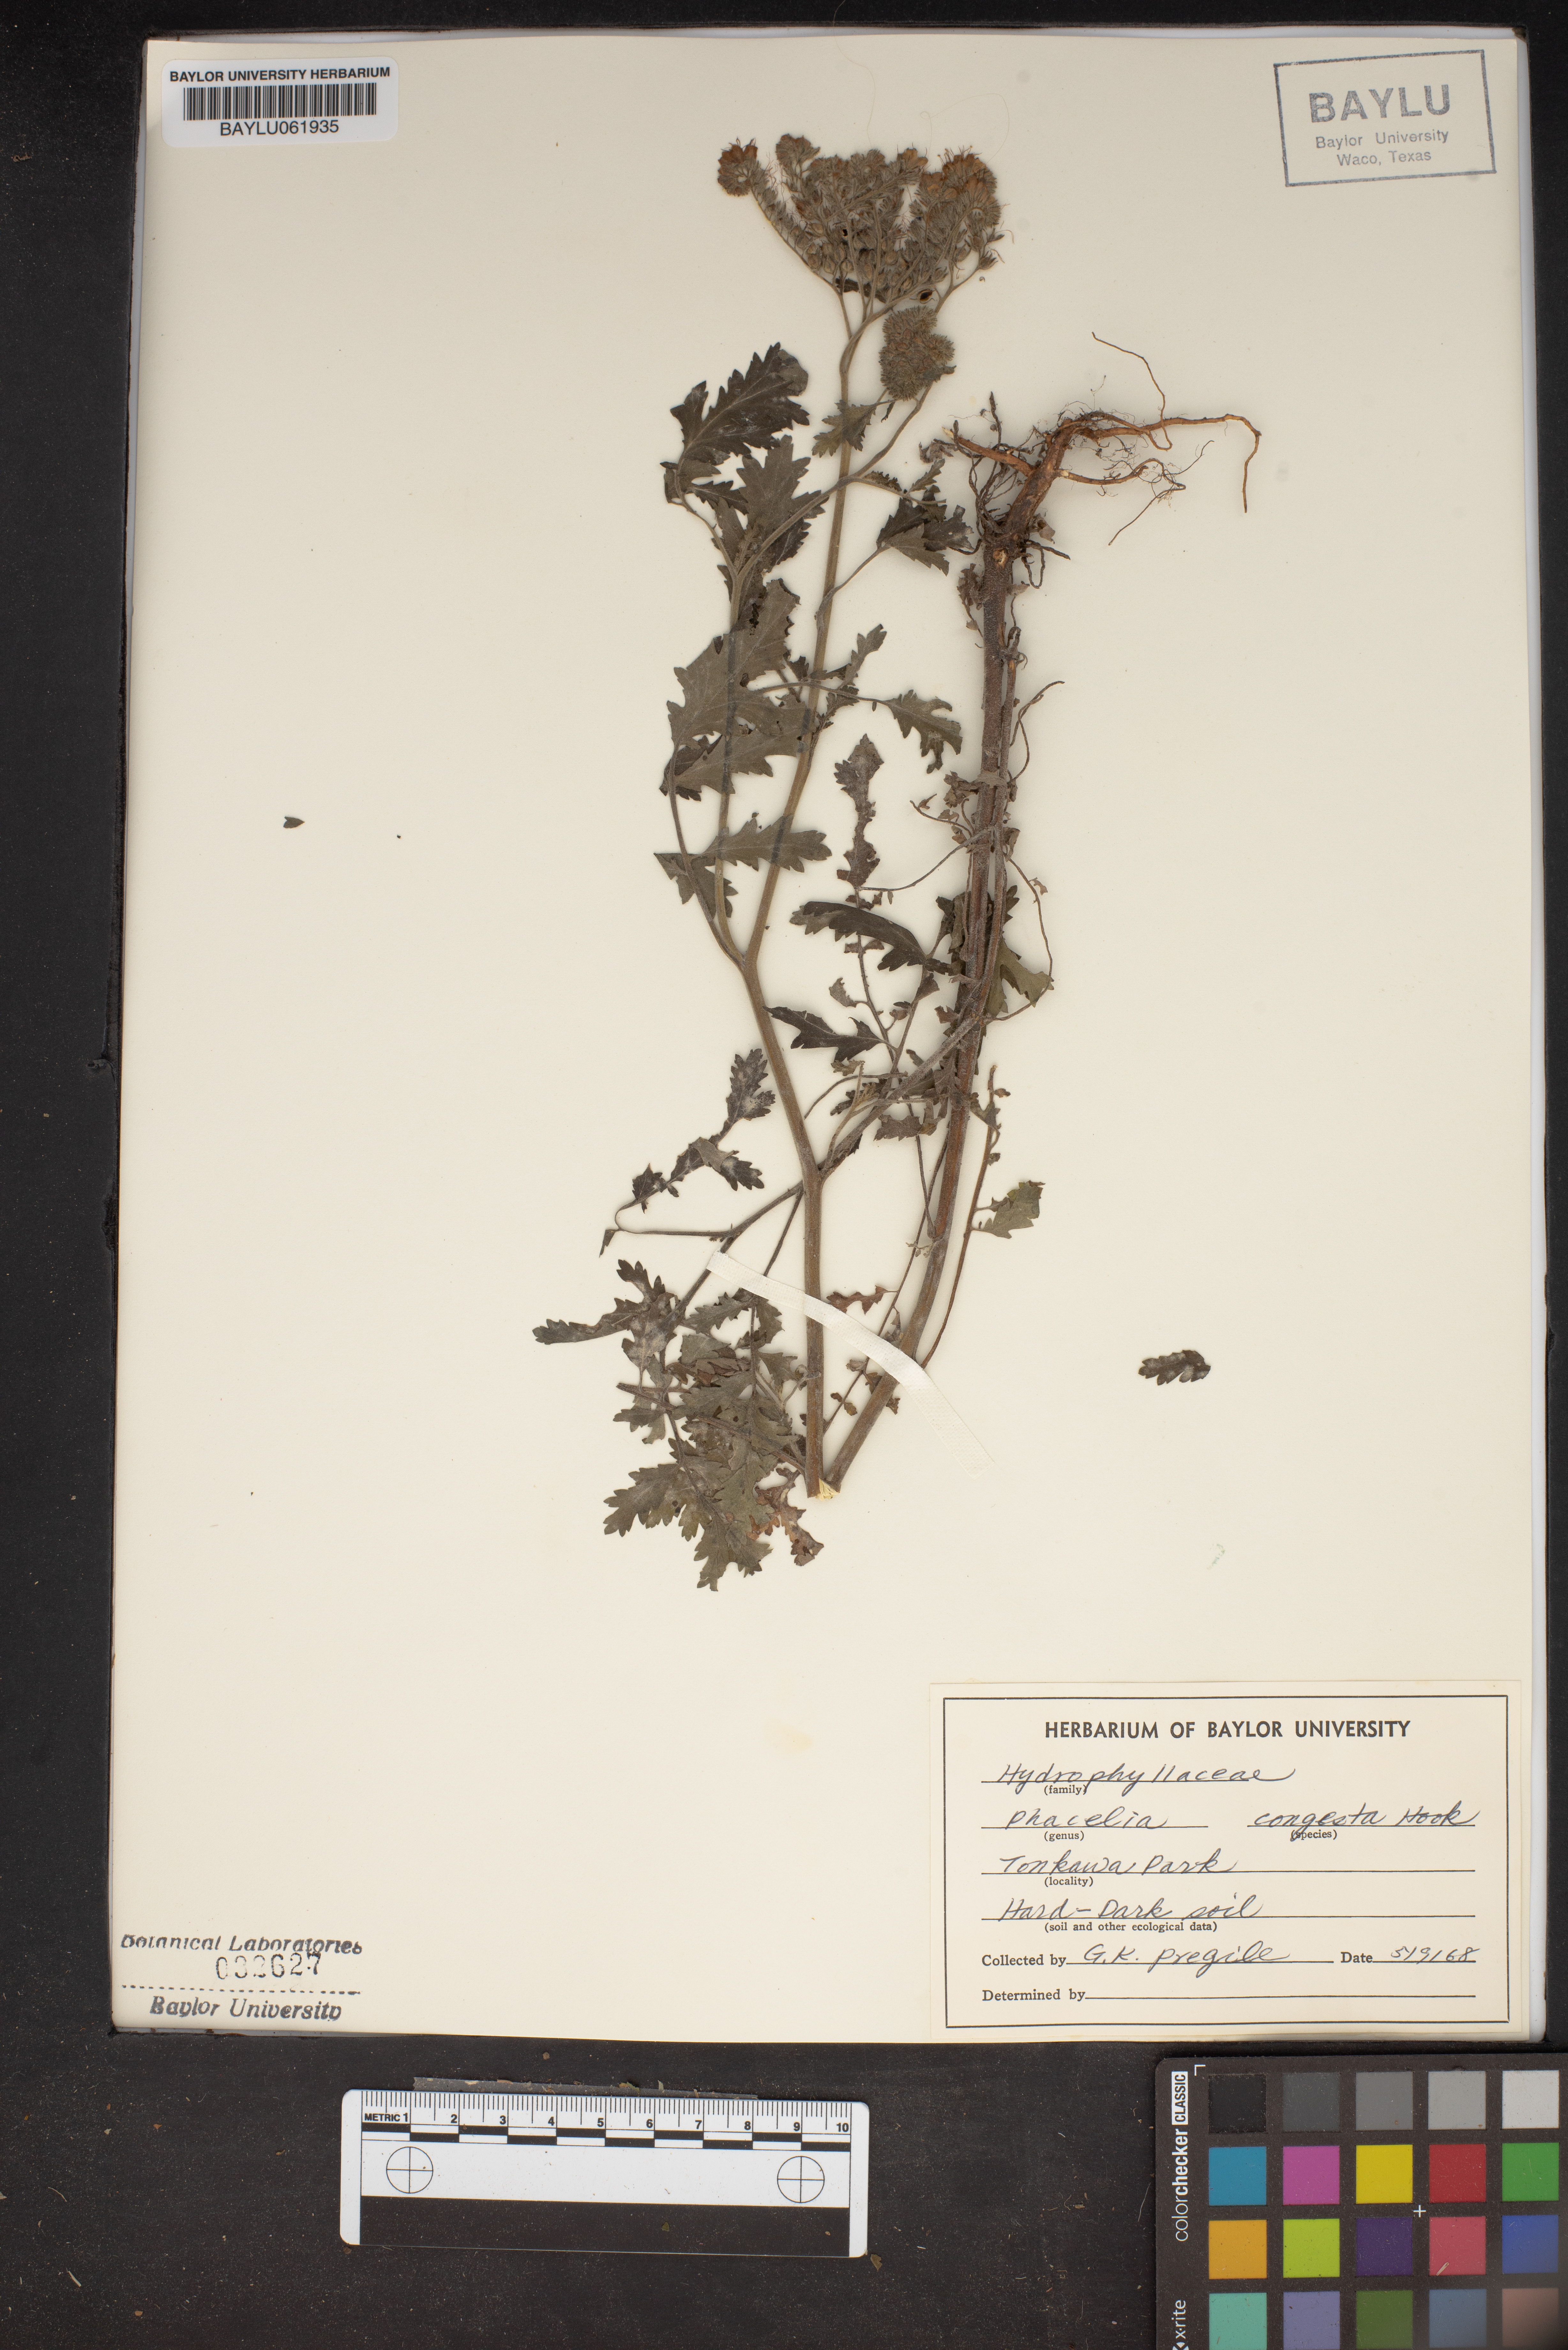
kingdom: Plantae
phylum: Tracheophyta
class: Magnoliopsida
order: Boraginales
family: Hydrophyllaceae
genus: Phacelia
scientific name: Phacelia congesta
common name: Blue curls
